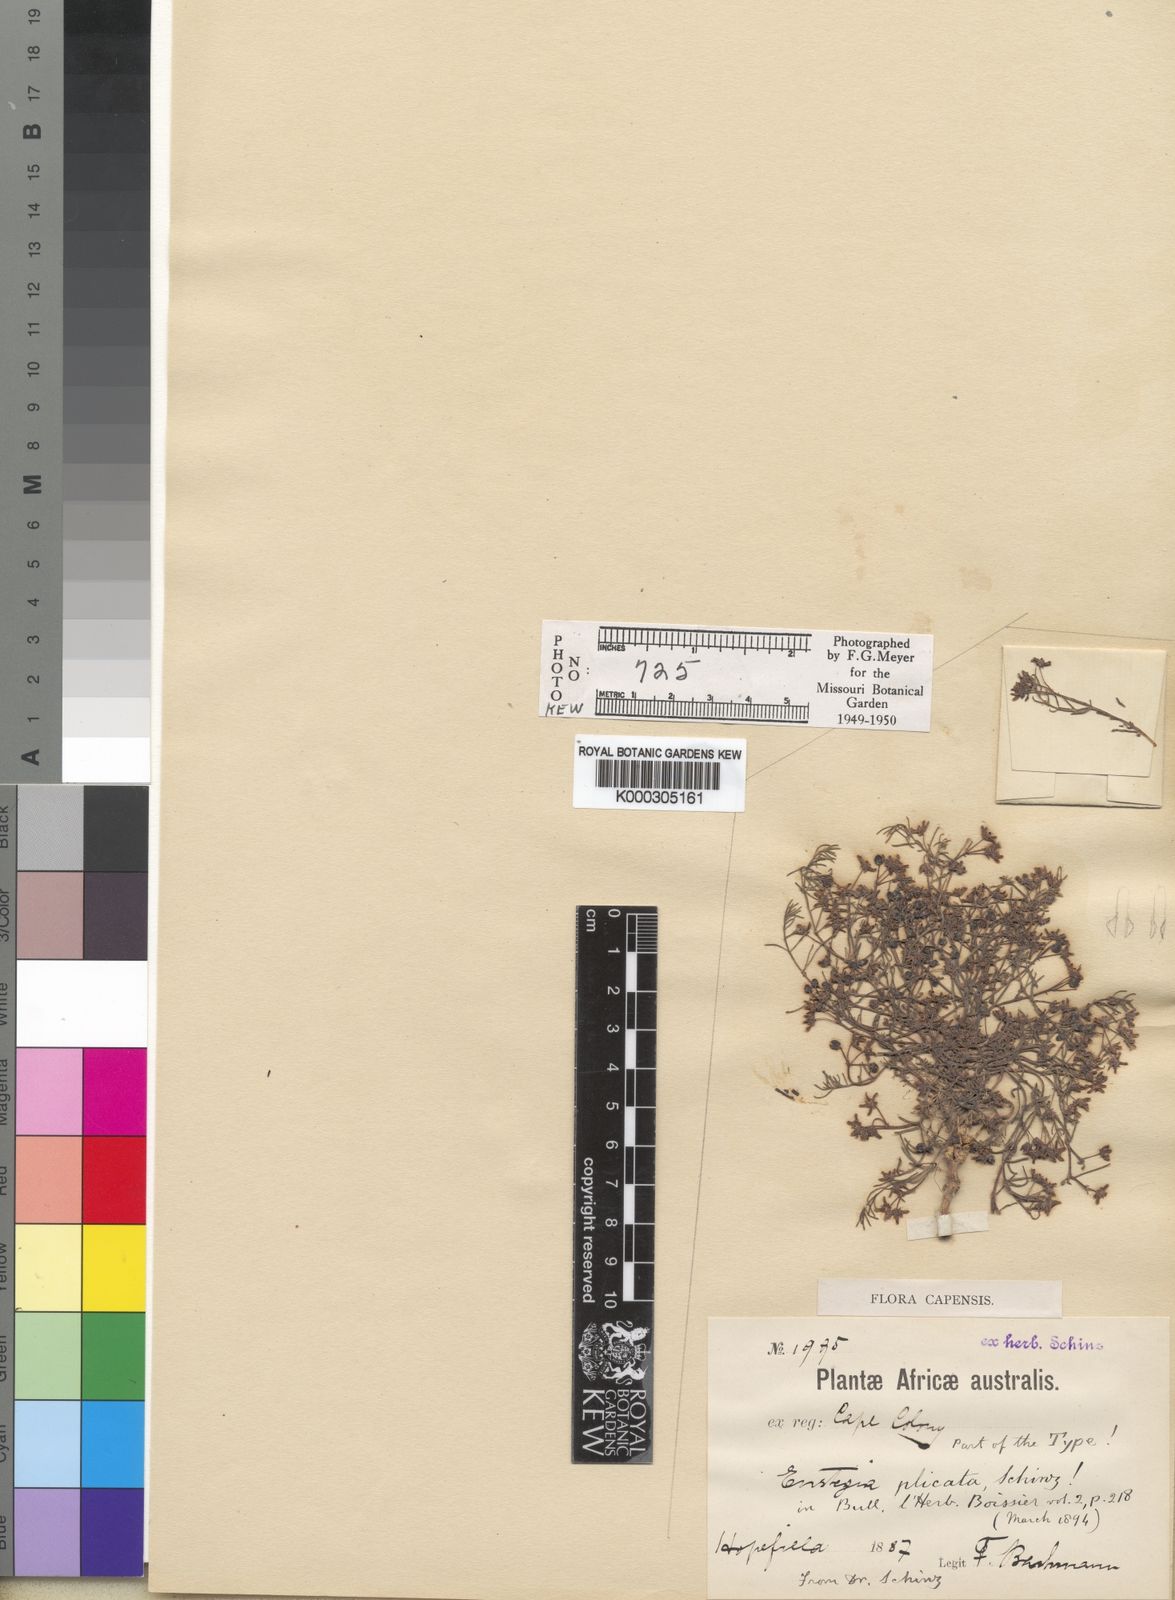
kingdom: Plantae
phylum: Tracheophyta
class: Magnoliopsida
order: Gentianales
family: Apocynaceae
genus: Eustegia
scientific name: Eustegia plicata
